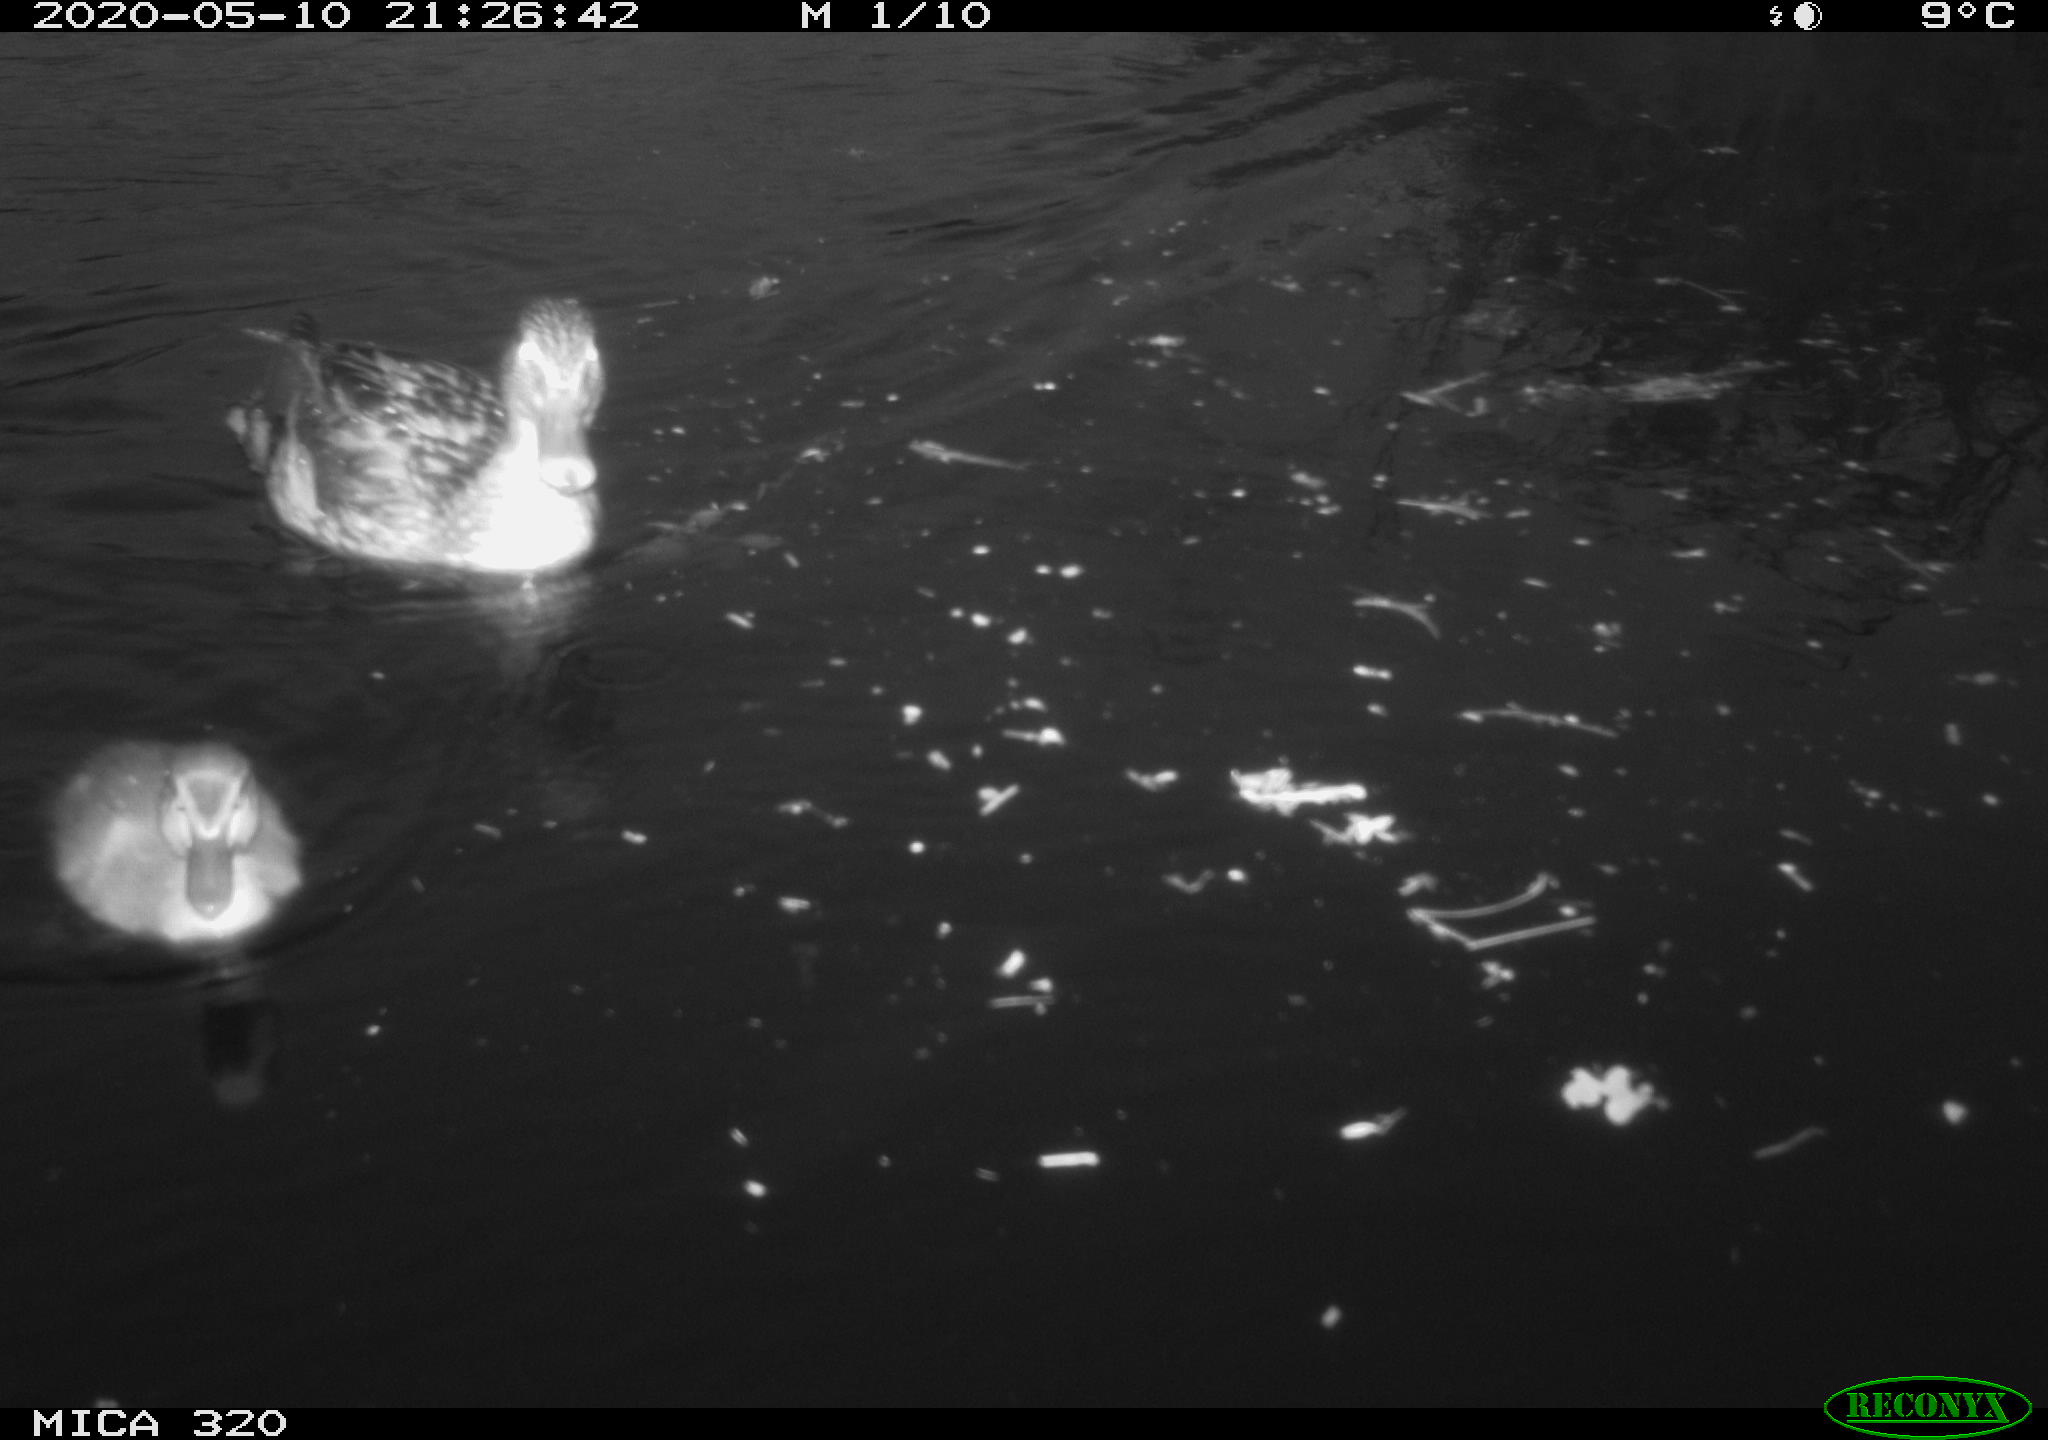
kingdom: Animalia
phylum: Chordata
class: Aves
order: Anseriformes
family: Anatidae
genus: Anas
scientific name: Anas platyrhynchos
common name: Mallard
